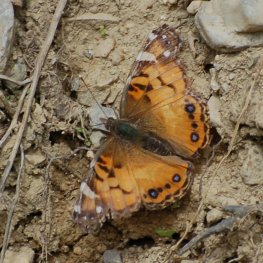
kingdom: Animalia
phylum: Arthropoda
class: Insecta
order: Lepidoptera
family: Nymphalidae
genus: Vanessa
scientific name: Vanessa virginiensis
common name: American Lady
